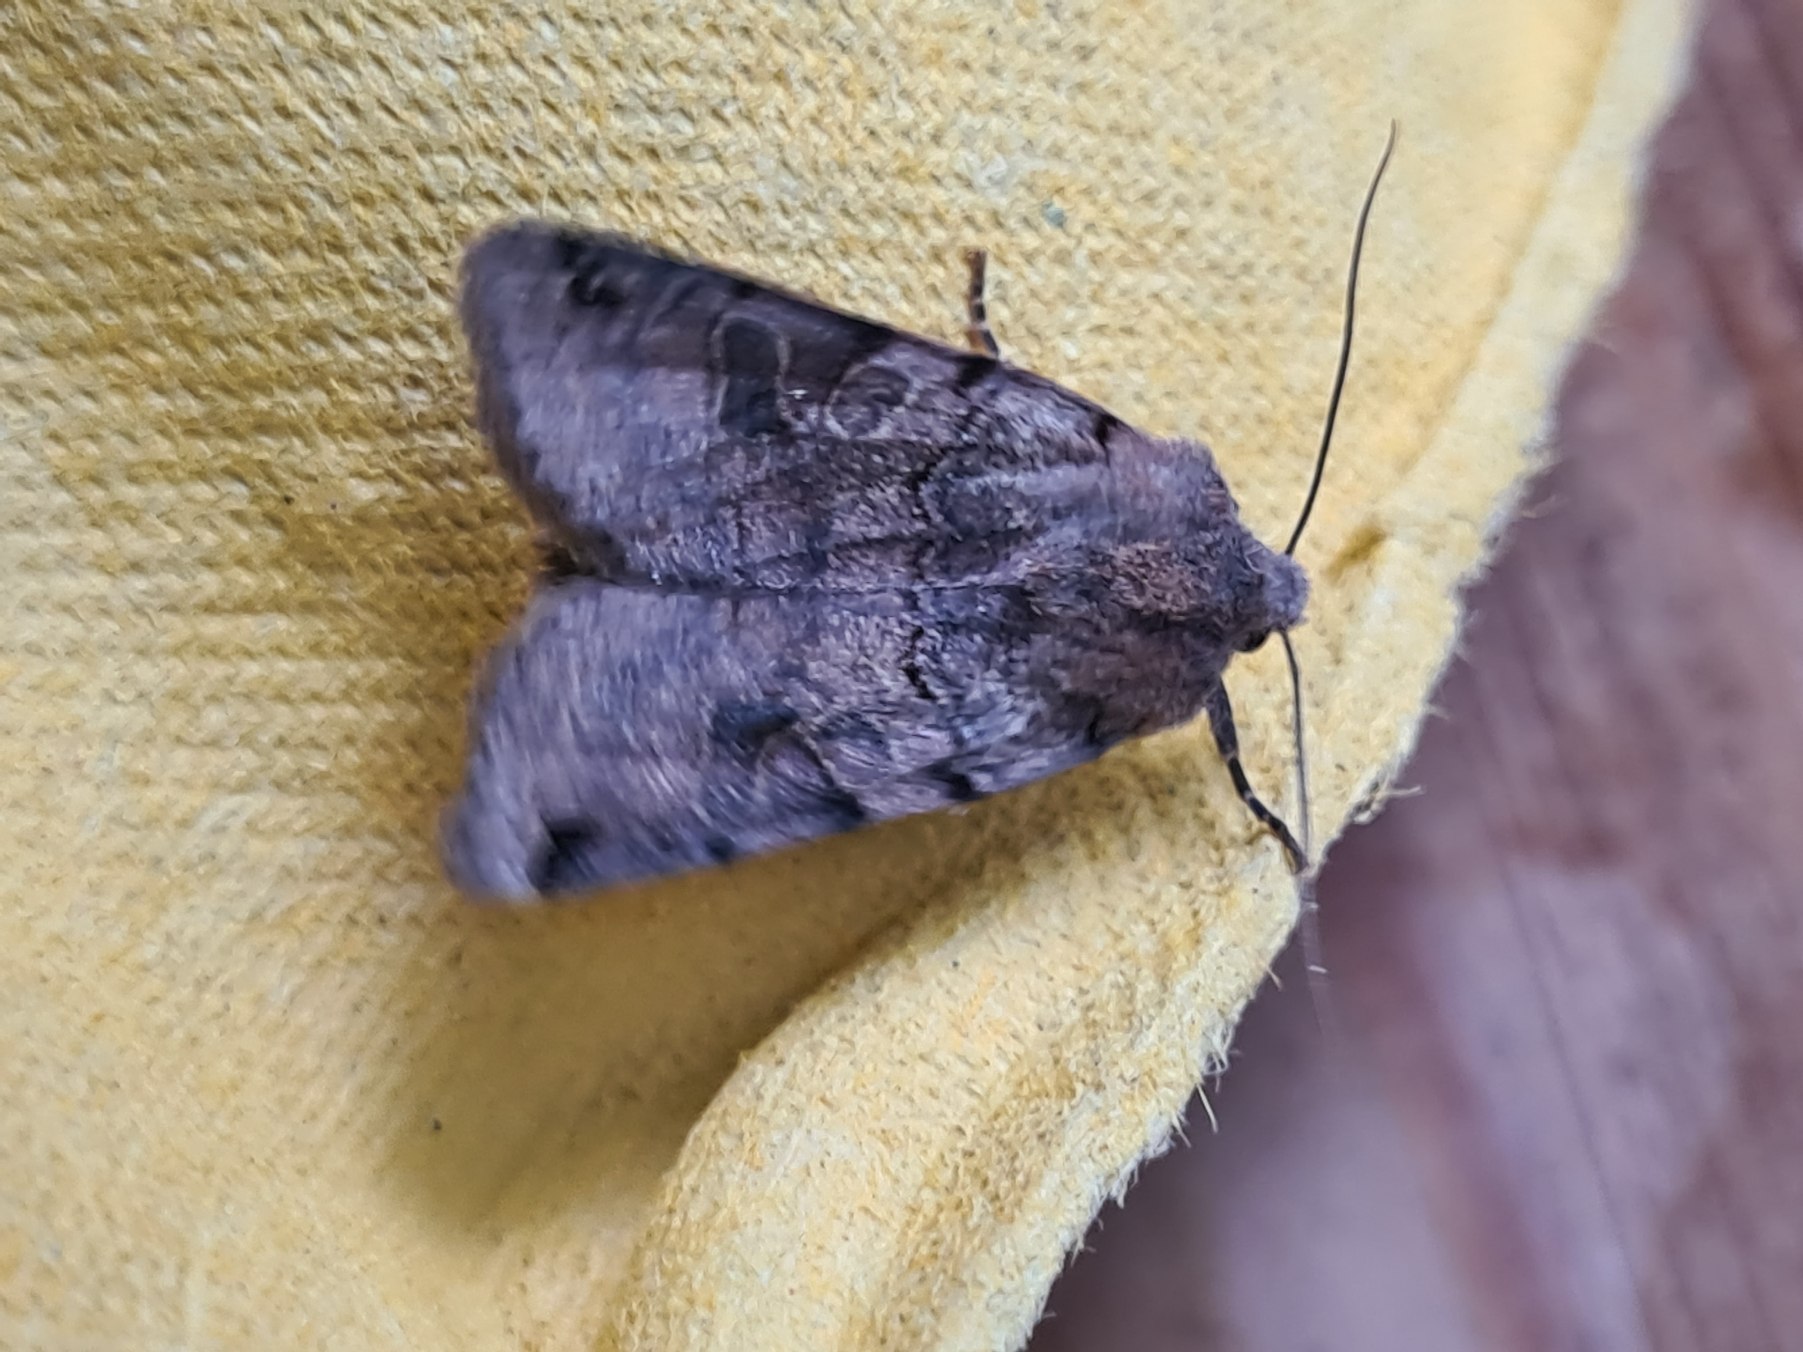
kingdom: Animalia
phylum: Arthropoda
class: Insecta
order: Lepidoptera
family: Noctuidae
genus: Agrochola
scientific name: Agrochola litura
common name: Kantplettet jordfarveugle
